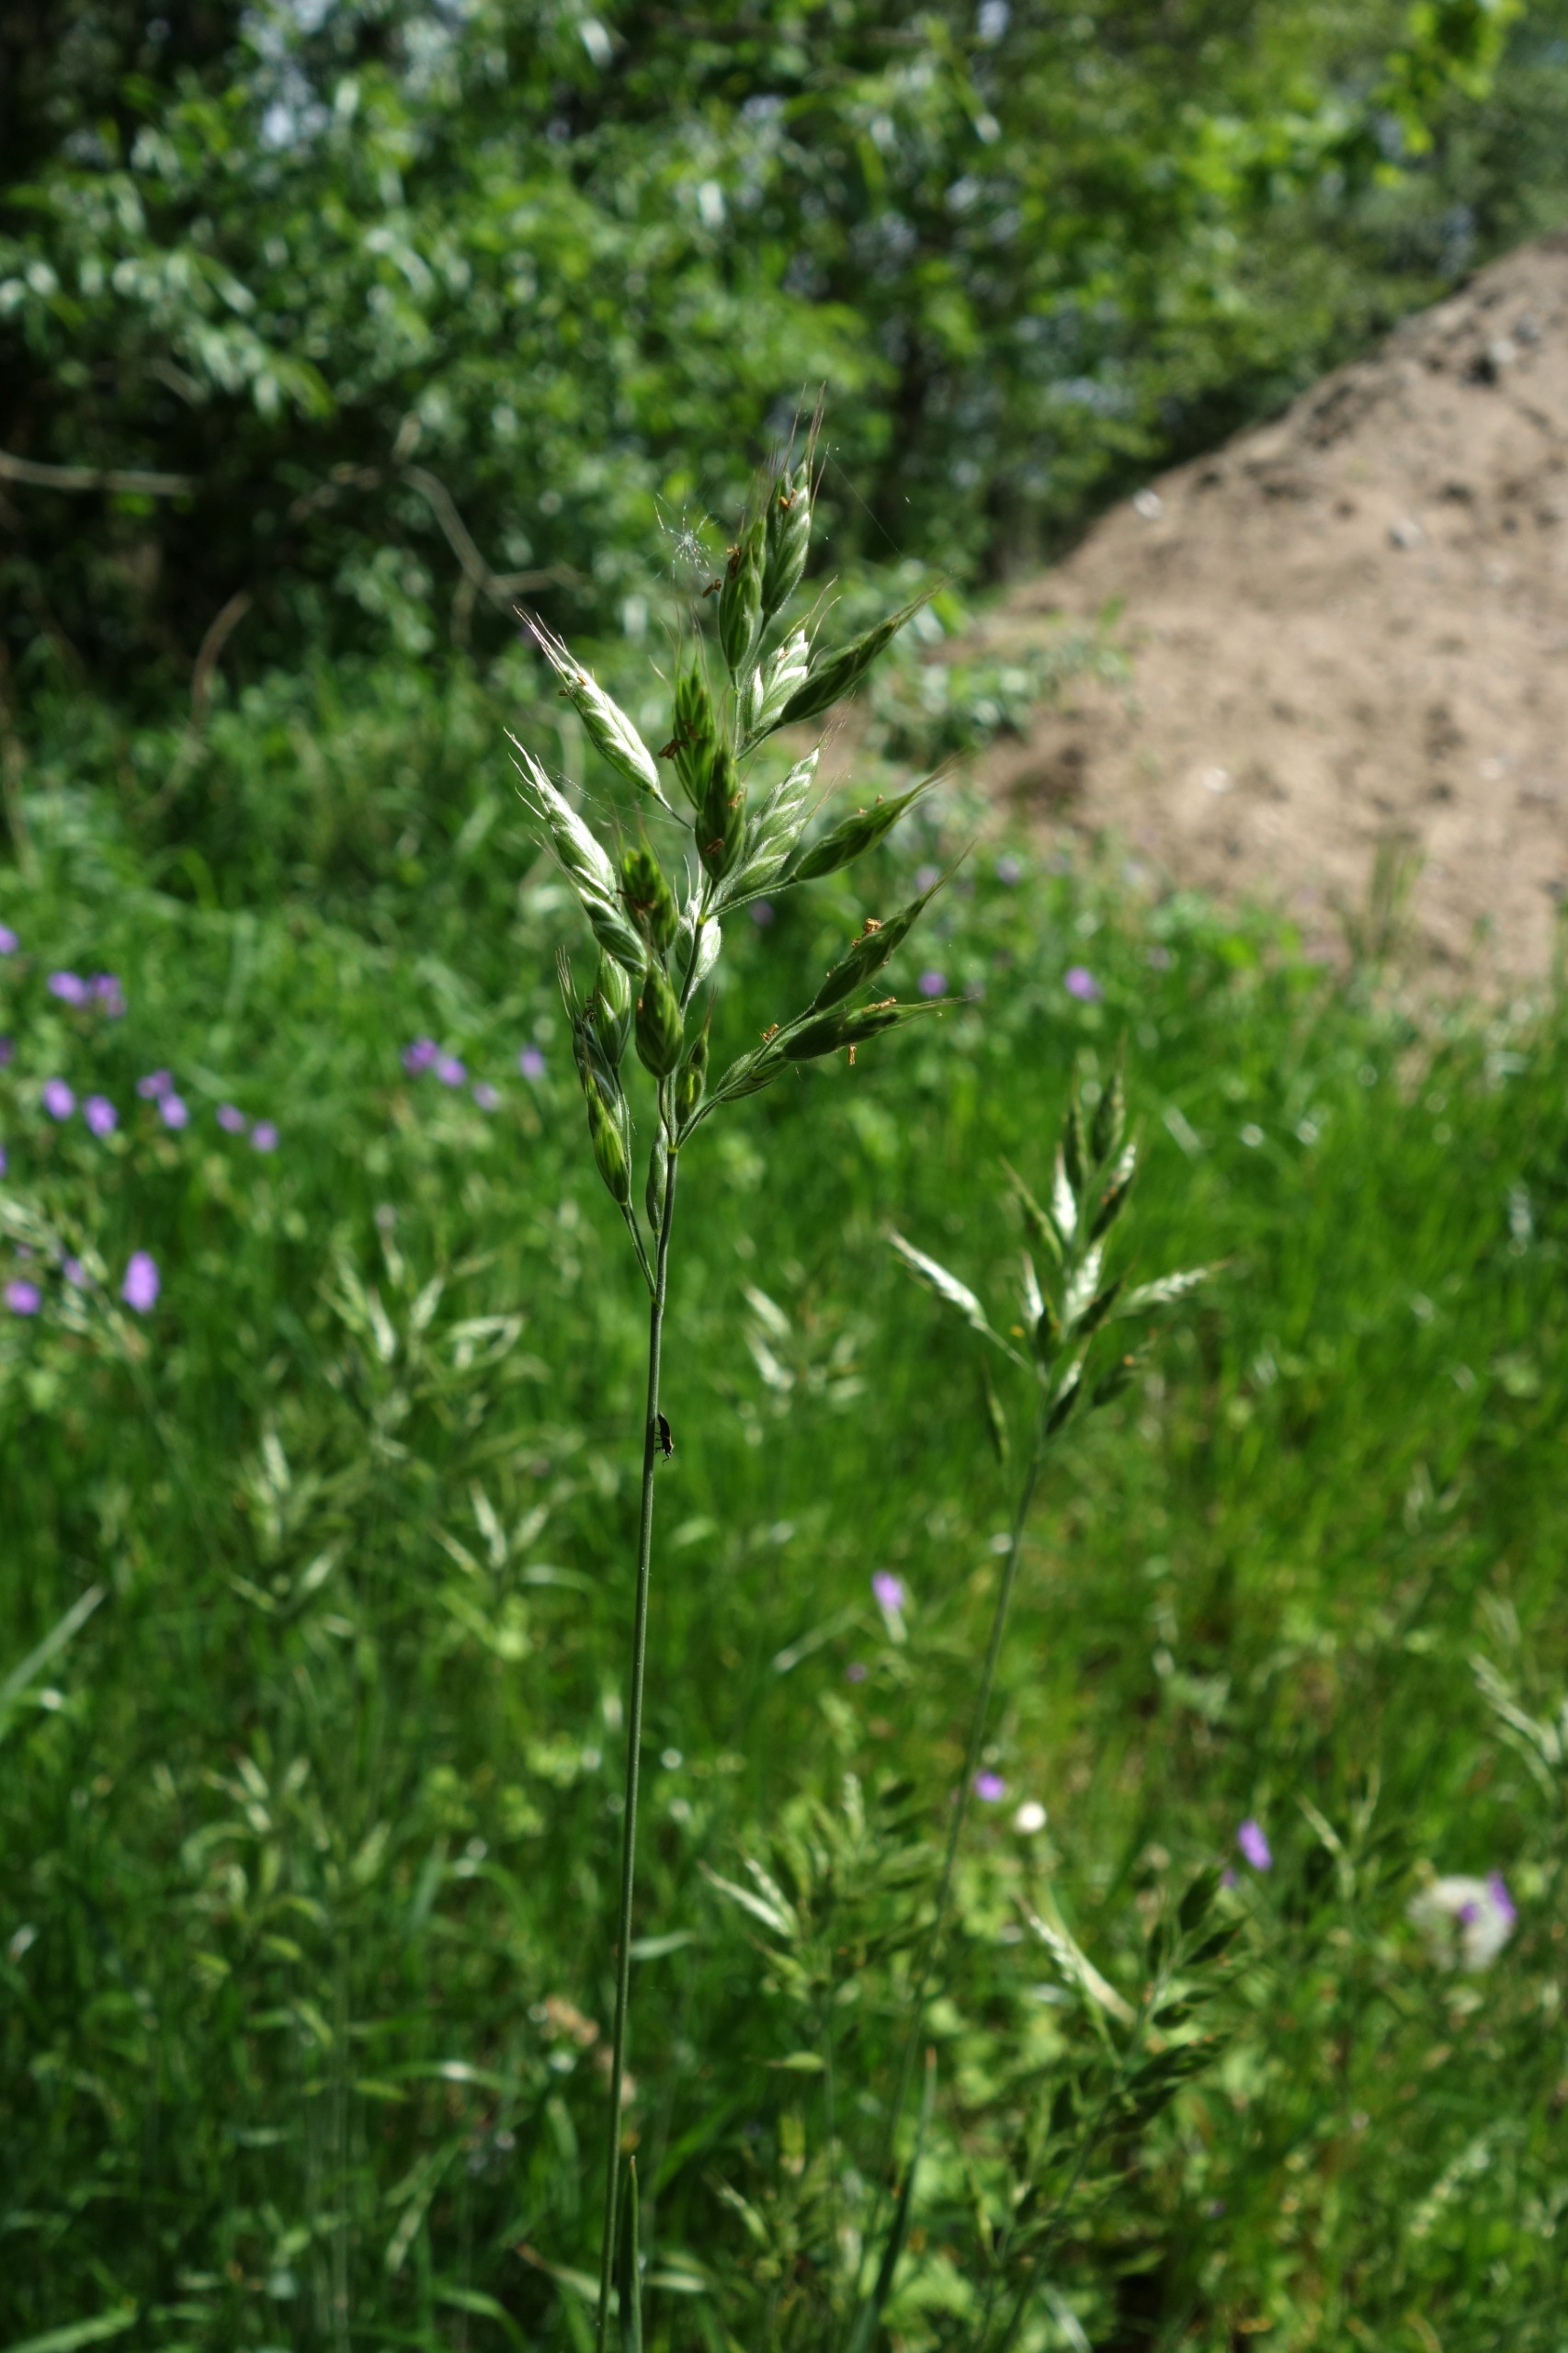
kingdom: Plantae
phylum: Tracheophyta
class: Liliopsida
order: Poales
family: Poaceae
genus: Bromus
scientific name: Bromus hordeaceus
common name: Blød hejre
